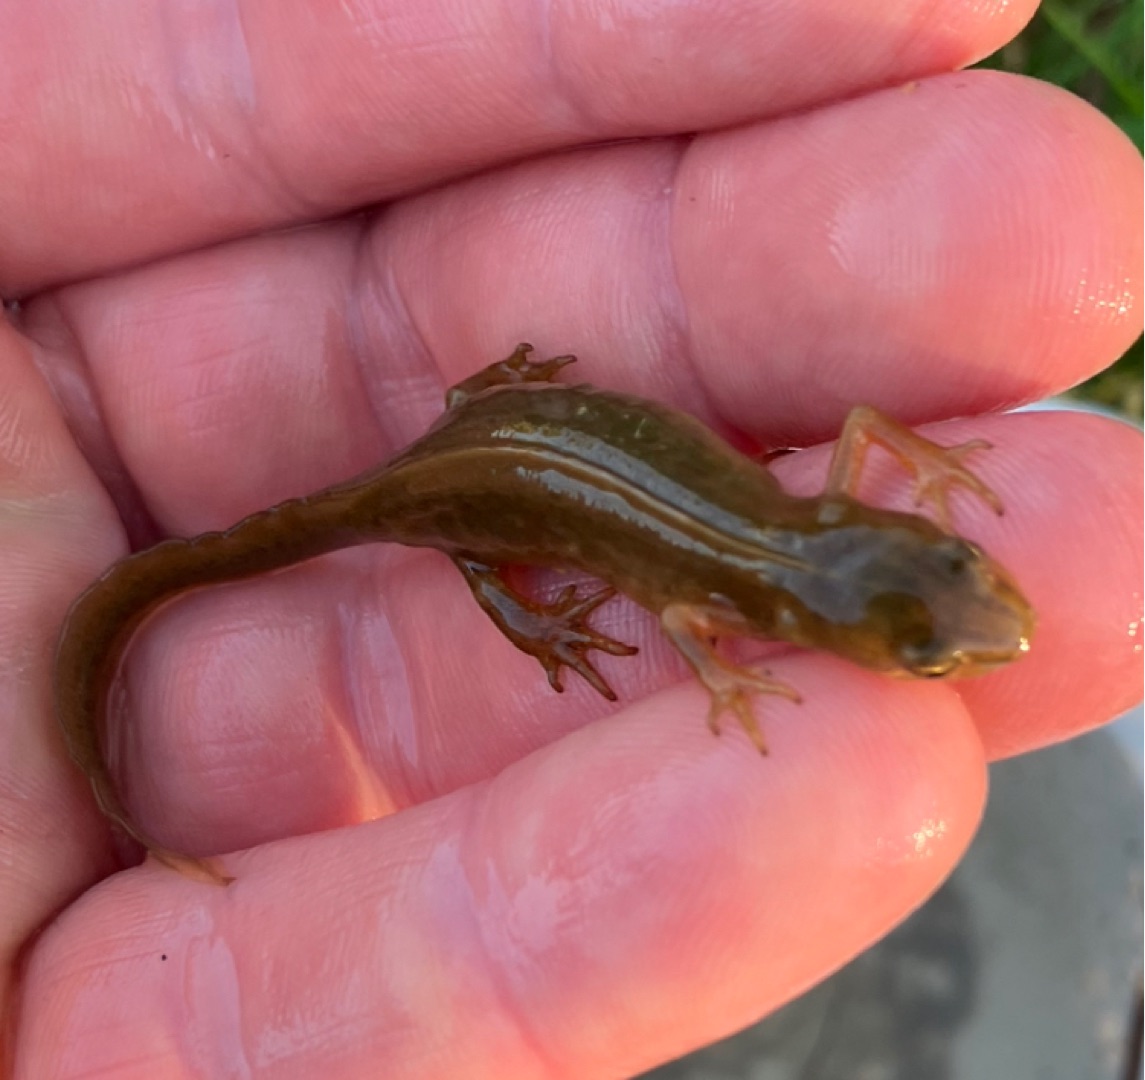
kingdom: Animalia
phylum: Chordata
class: Amphibia
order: Caudata
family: Salamandridae
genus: Lissotriton
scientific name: Lissotriton vulgaris
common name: Lille vandsalamander
